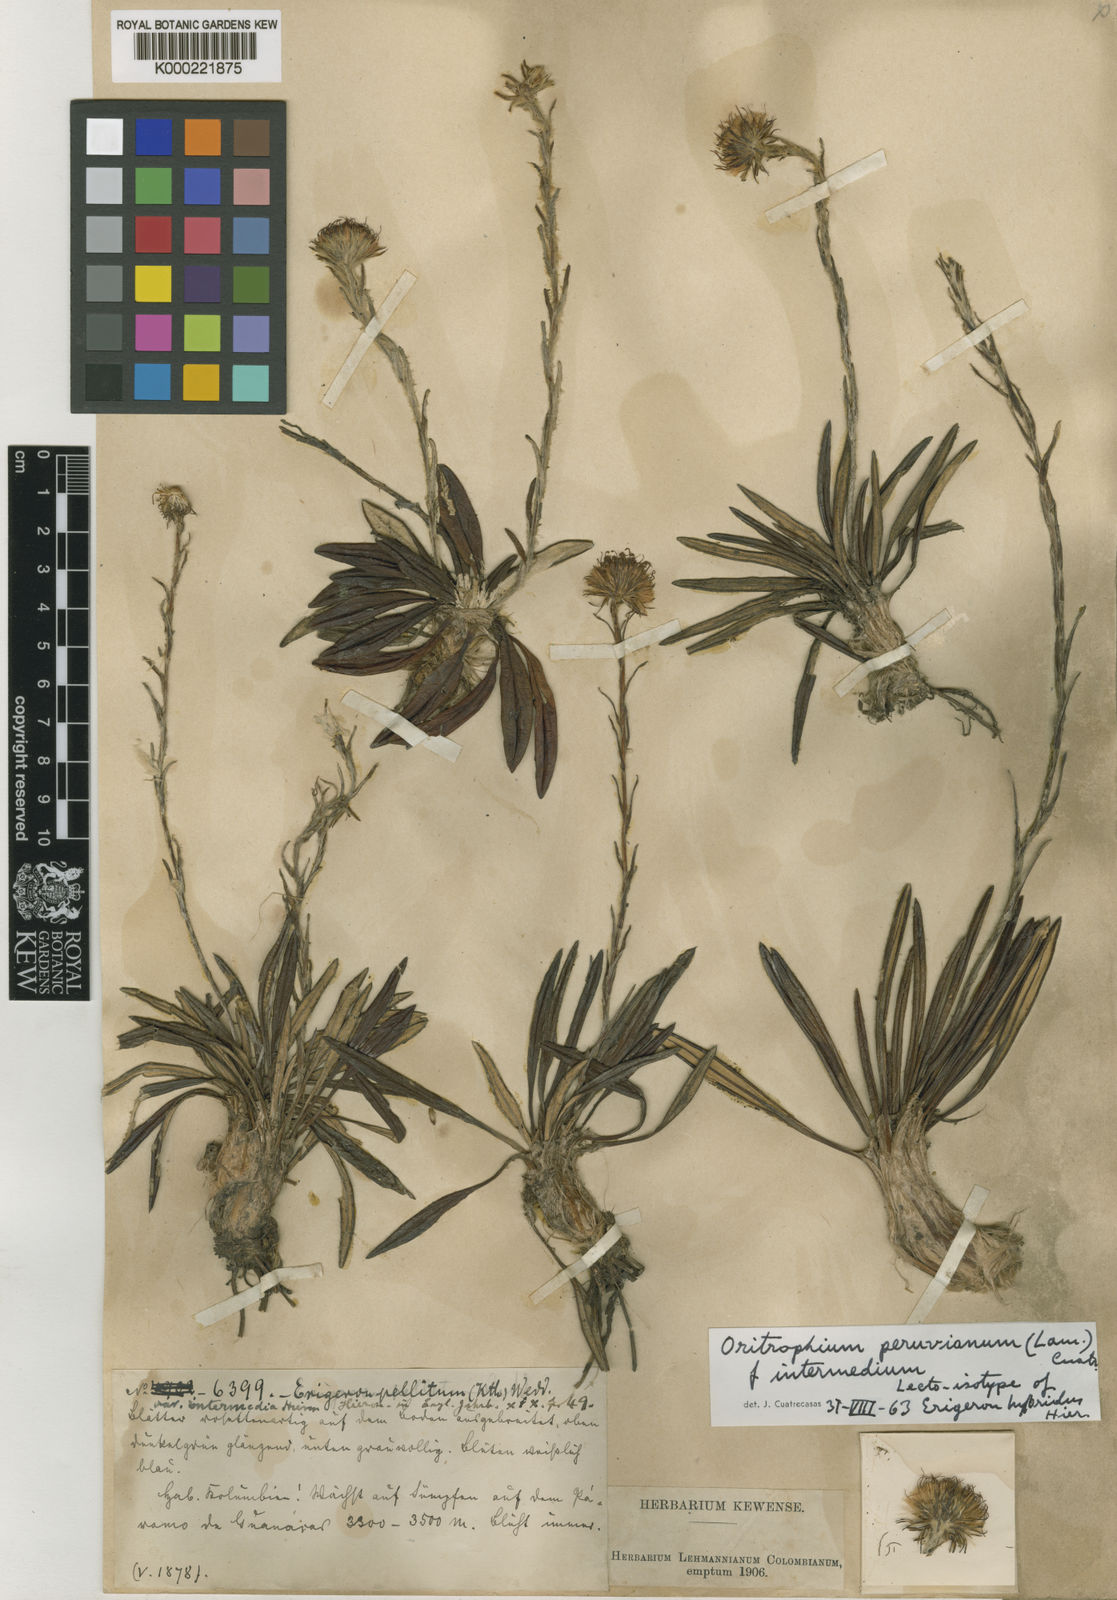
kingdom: Plantae
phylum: Tracheophyta
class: Magnoliopsida
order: Asterales
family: Asteraceae
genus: Oritrophium
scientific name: Oritrophium peruvianum
